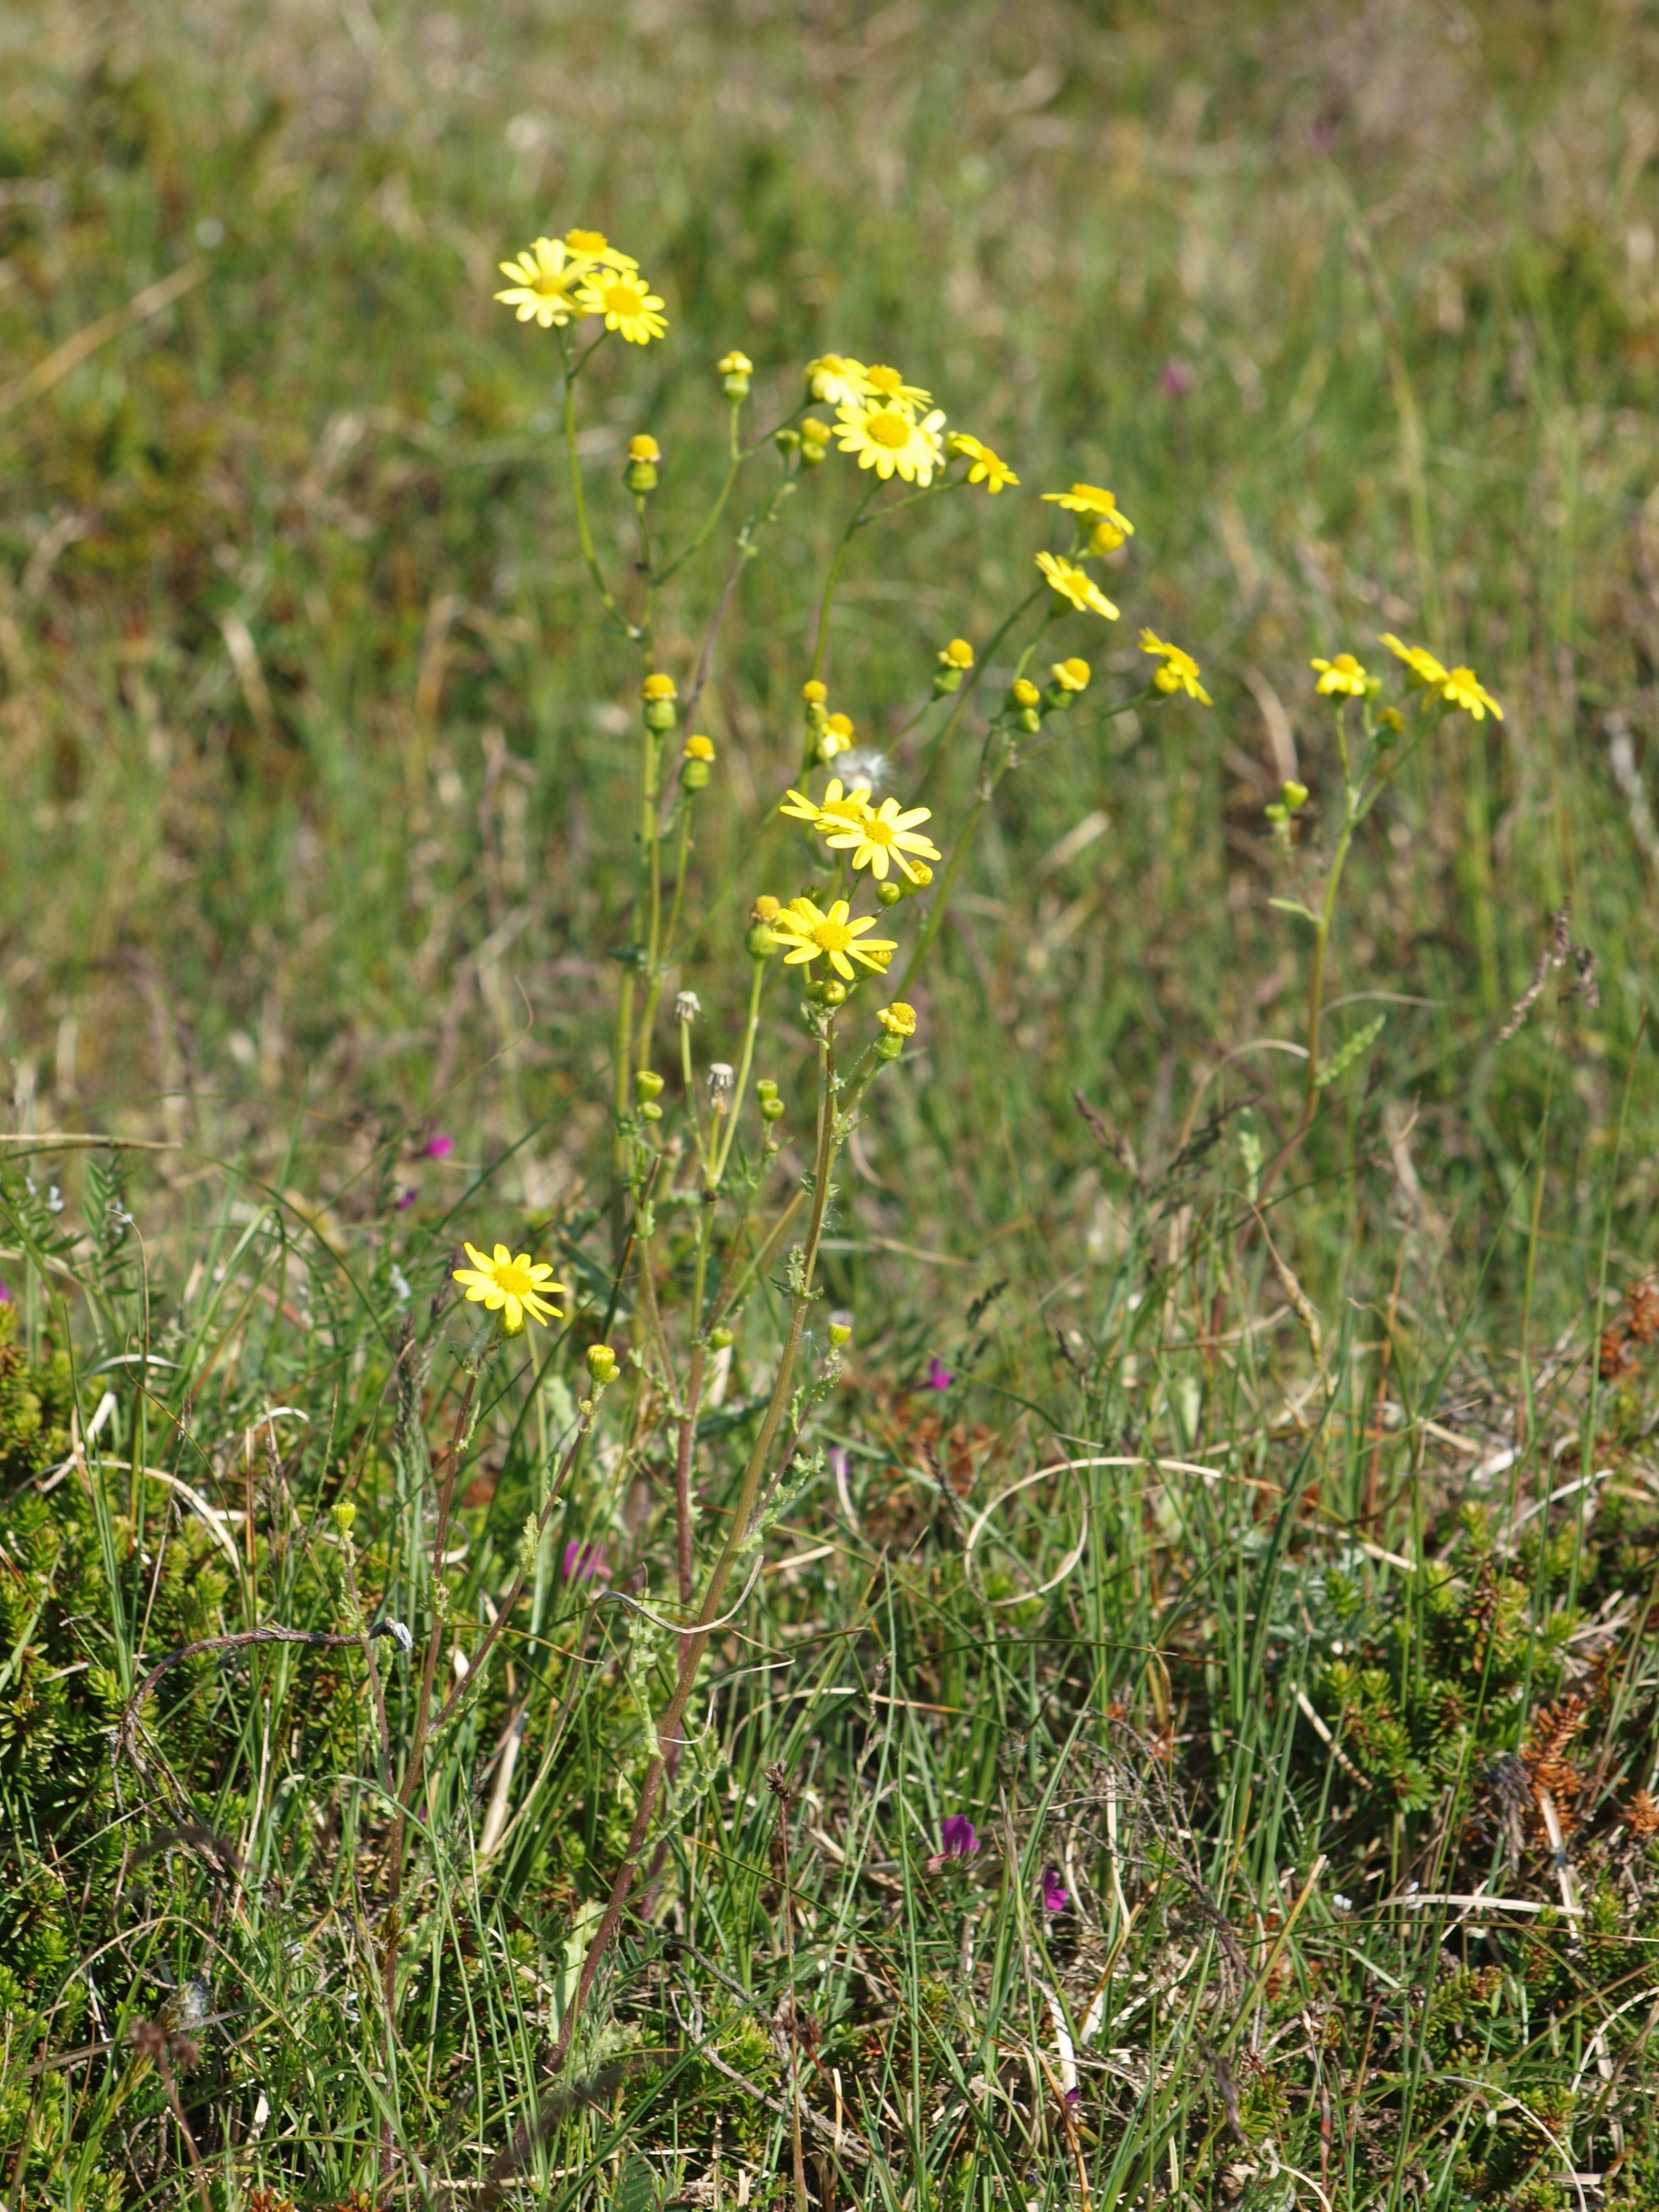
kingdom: Plantae
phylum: Tracheophyta
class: Magnoliopsida
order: Asterales
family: Asteraceae
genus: Senecio
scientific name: Senecio leucanthemifolius
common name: Vår-brandbæger
